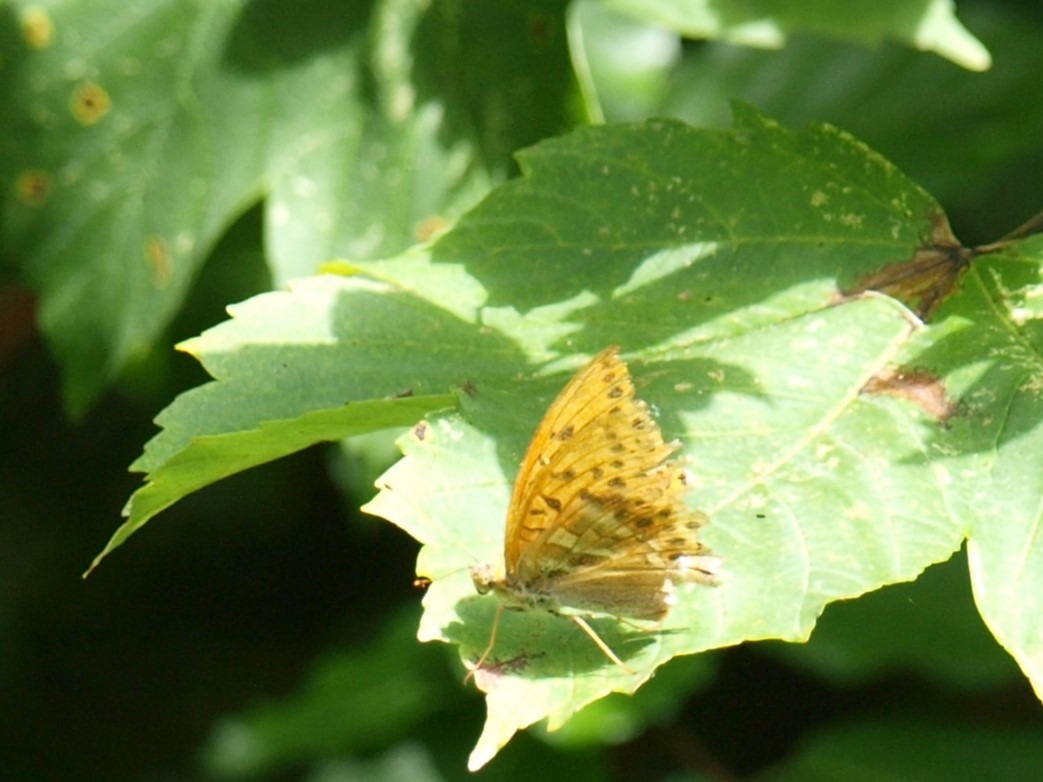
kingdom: Animalia
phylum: Arthropoda
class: Insecta
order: Lepidoptera
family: Nymphalidae
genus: Argynnis
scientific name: Argynnis paphia
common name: Kejserkåbe
